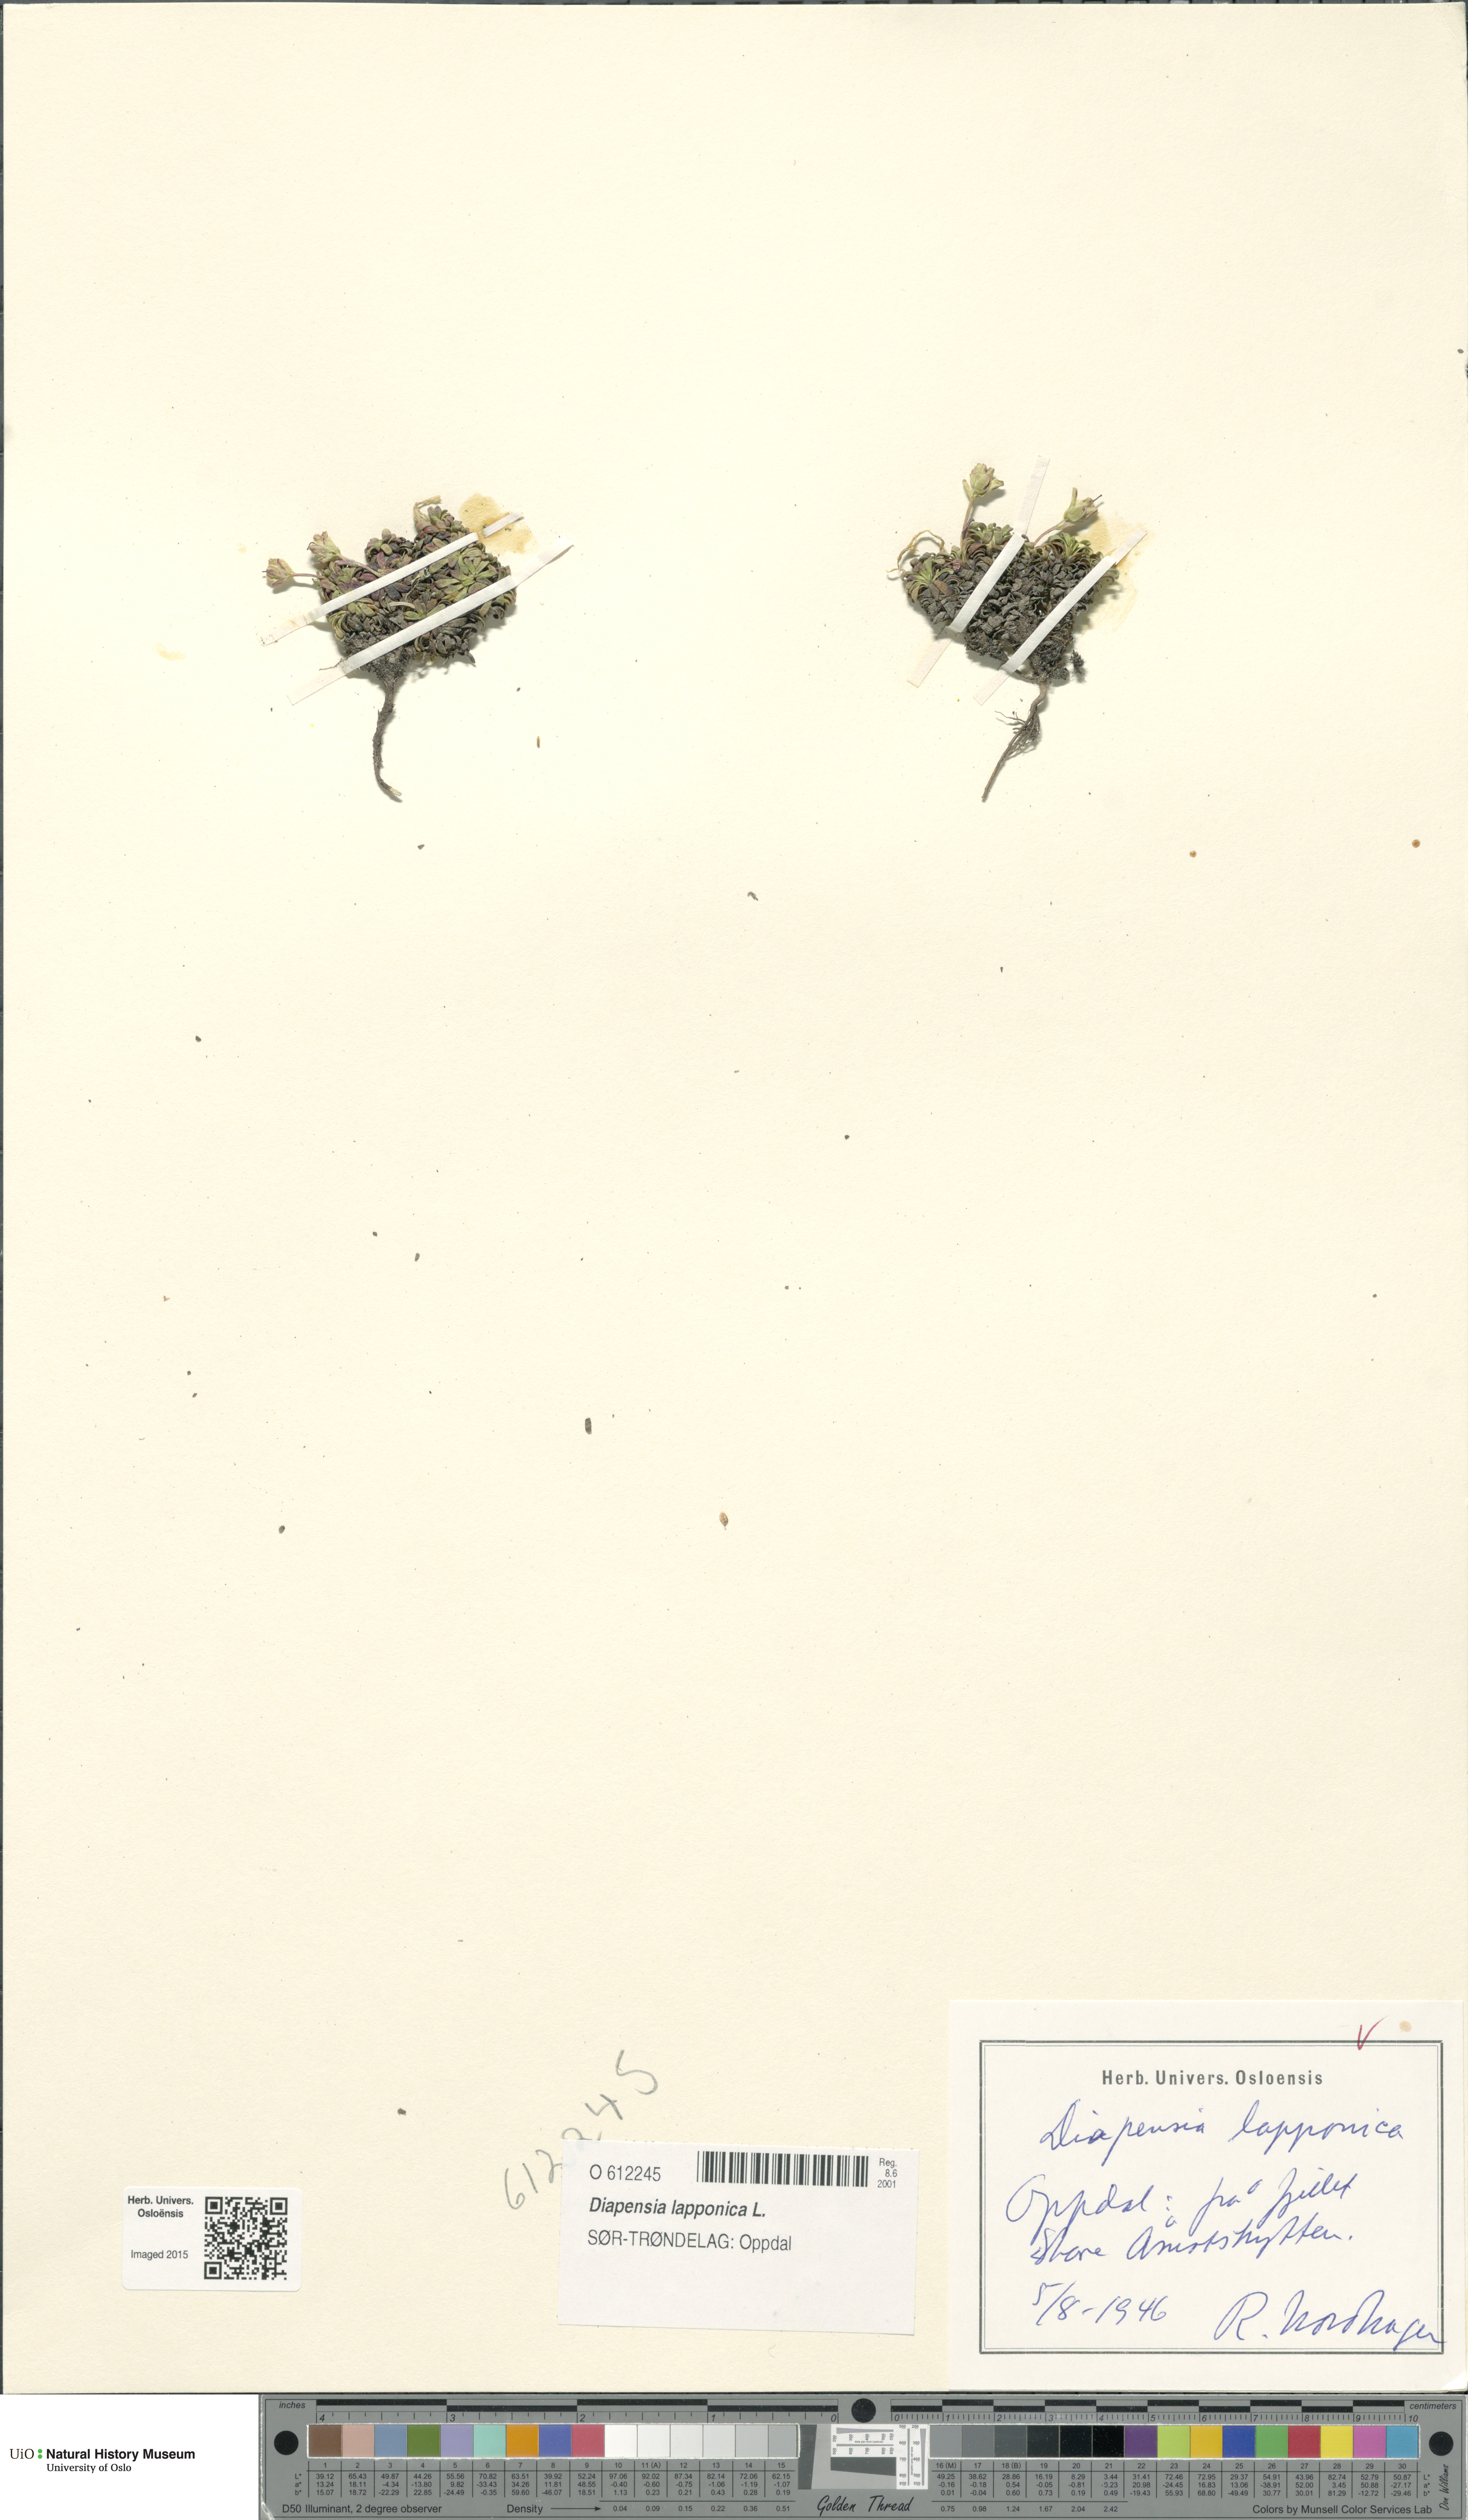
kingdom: Plantae
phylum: Tracheophyta
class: Magnoliopsida
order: Ericales
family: Diapensiaceae
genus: Diapensia
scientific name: Diapensia lapponica
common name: Diapensia
